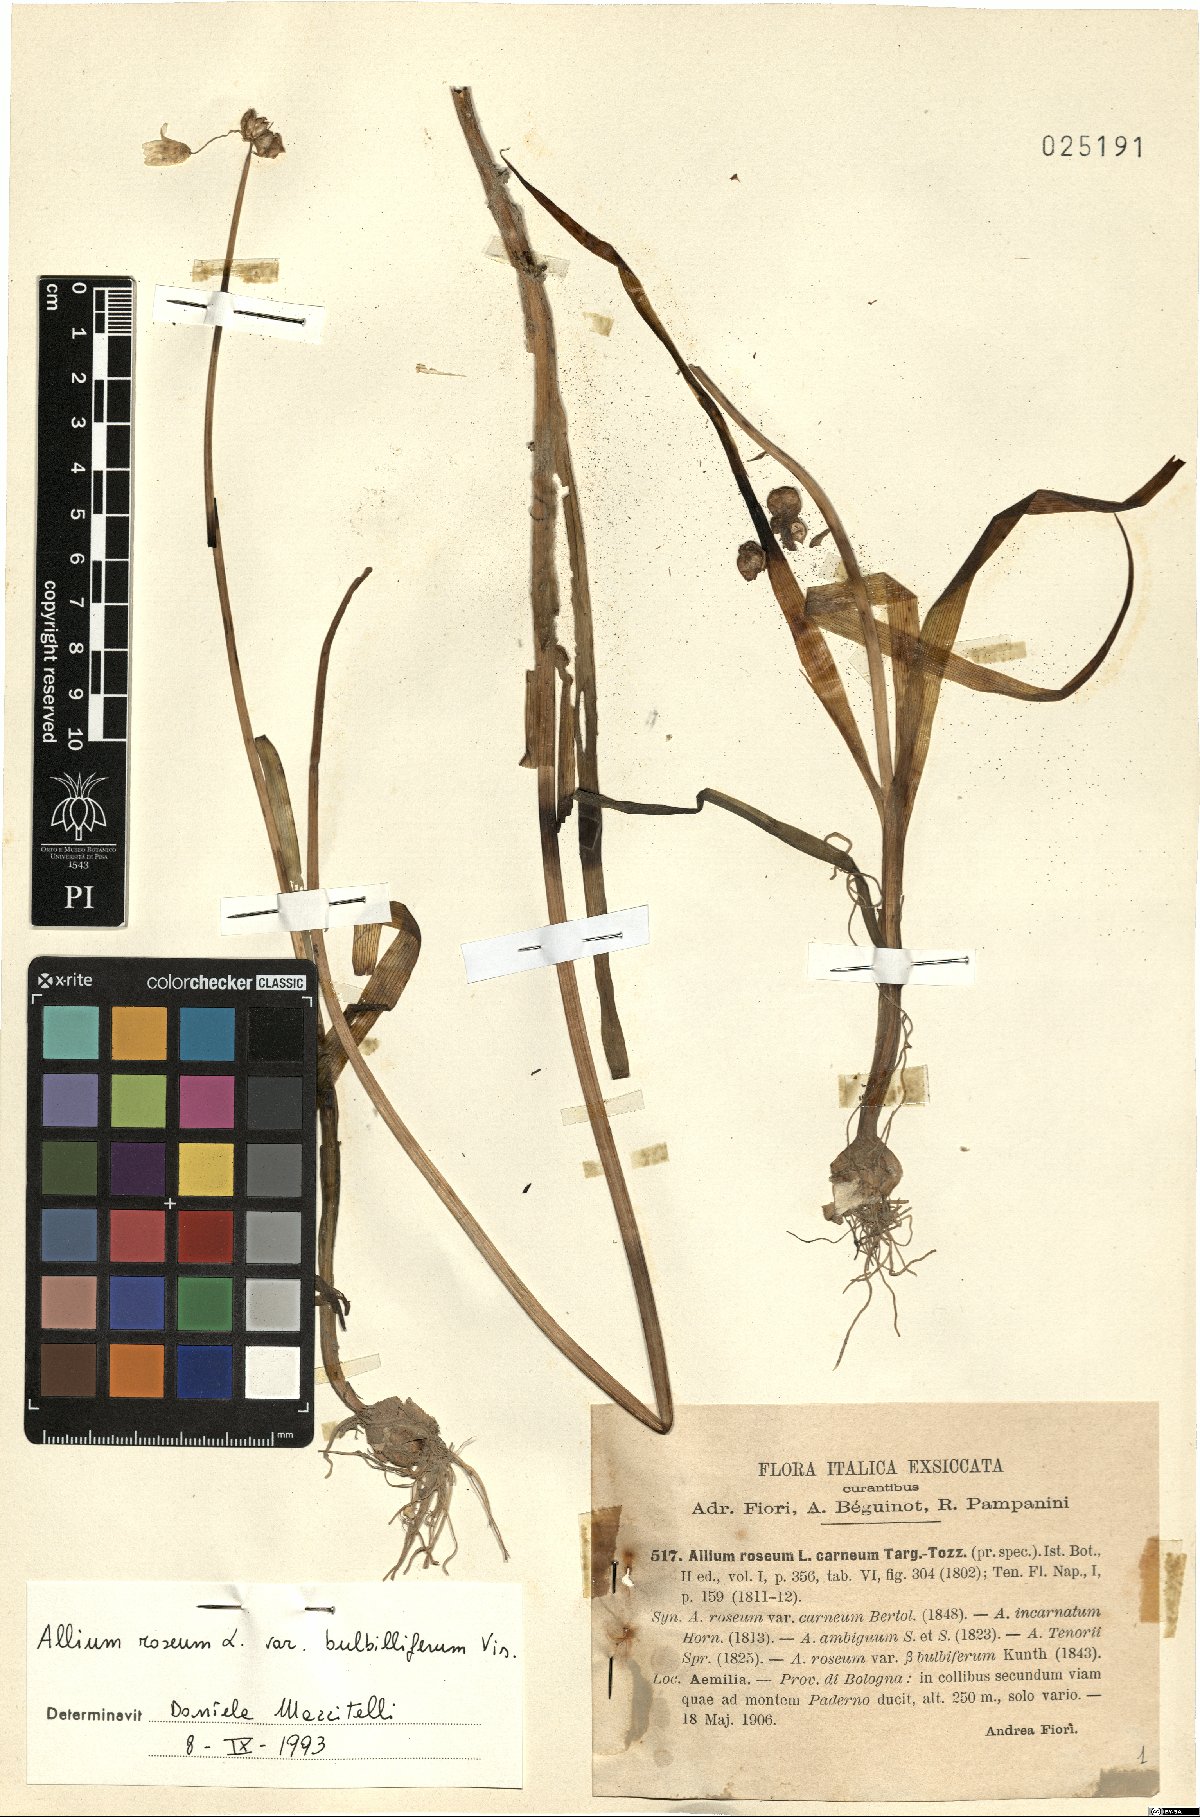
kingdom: Plantae
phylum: Tracheophyta
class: Liliopsida
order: Asparagales
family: Amaryllidaceae
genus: Allium
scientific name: Allium roseum
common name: Rosy garlic
